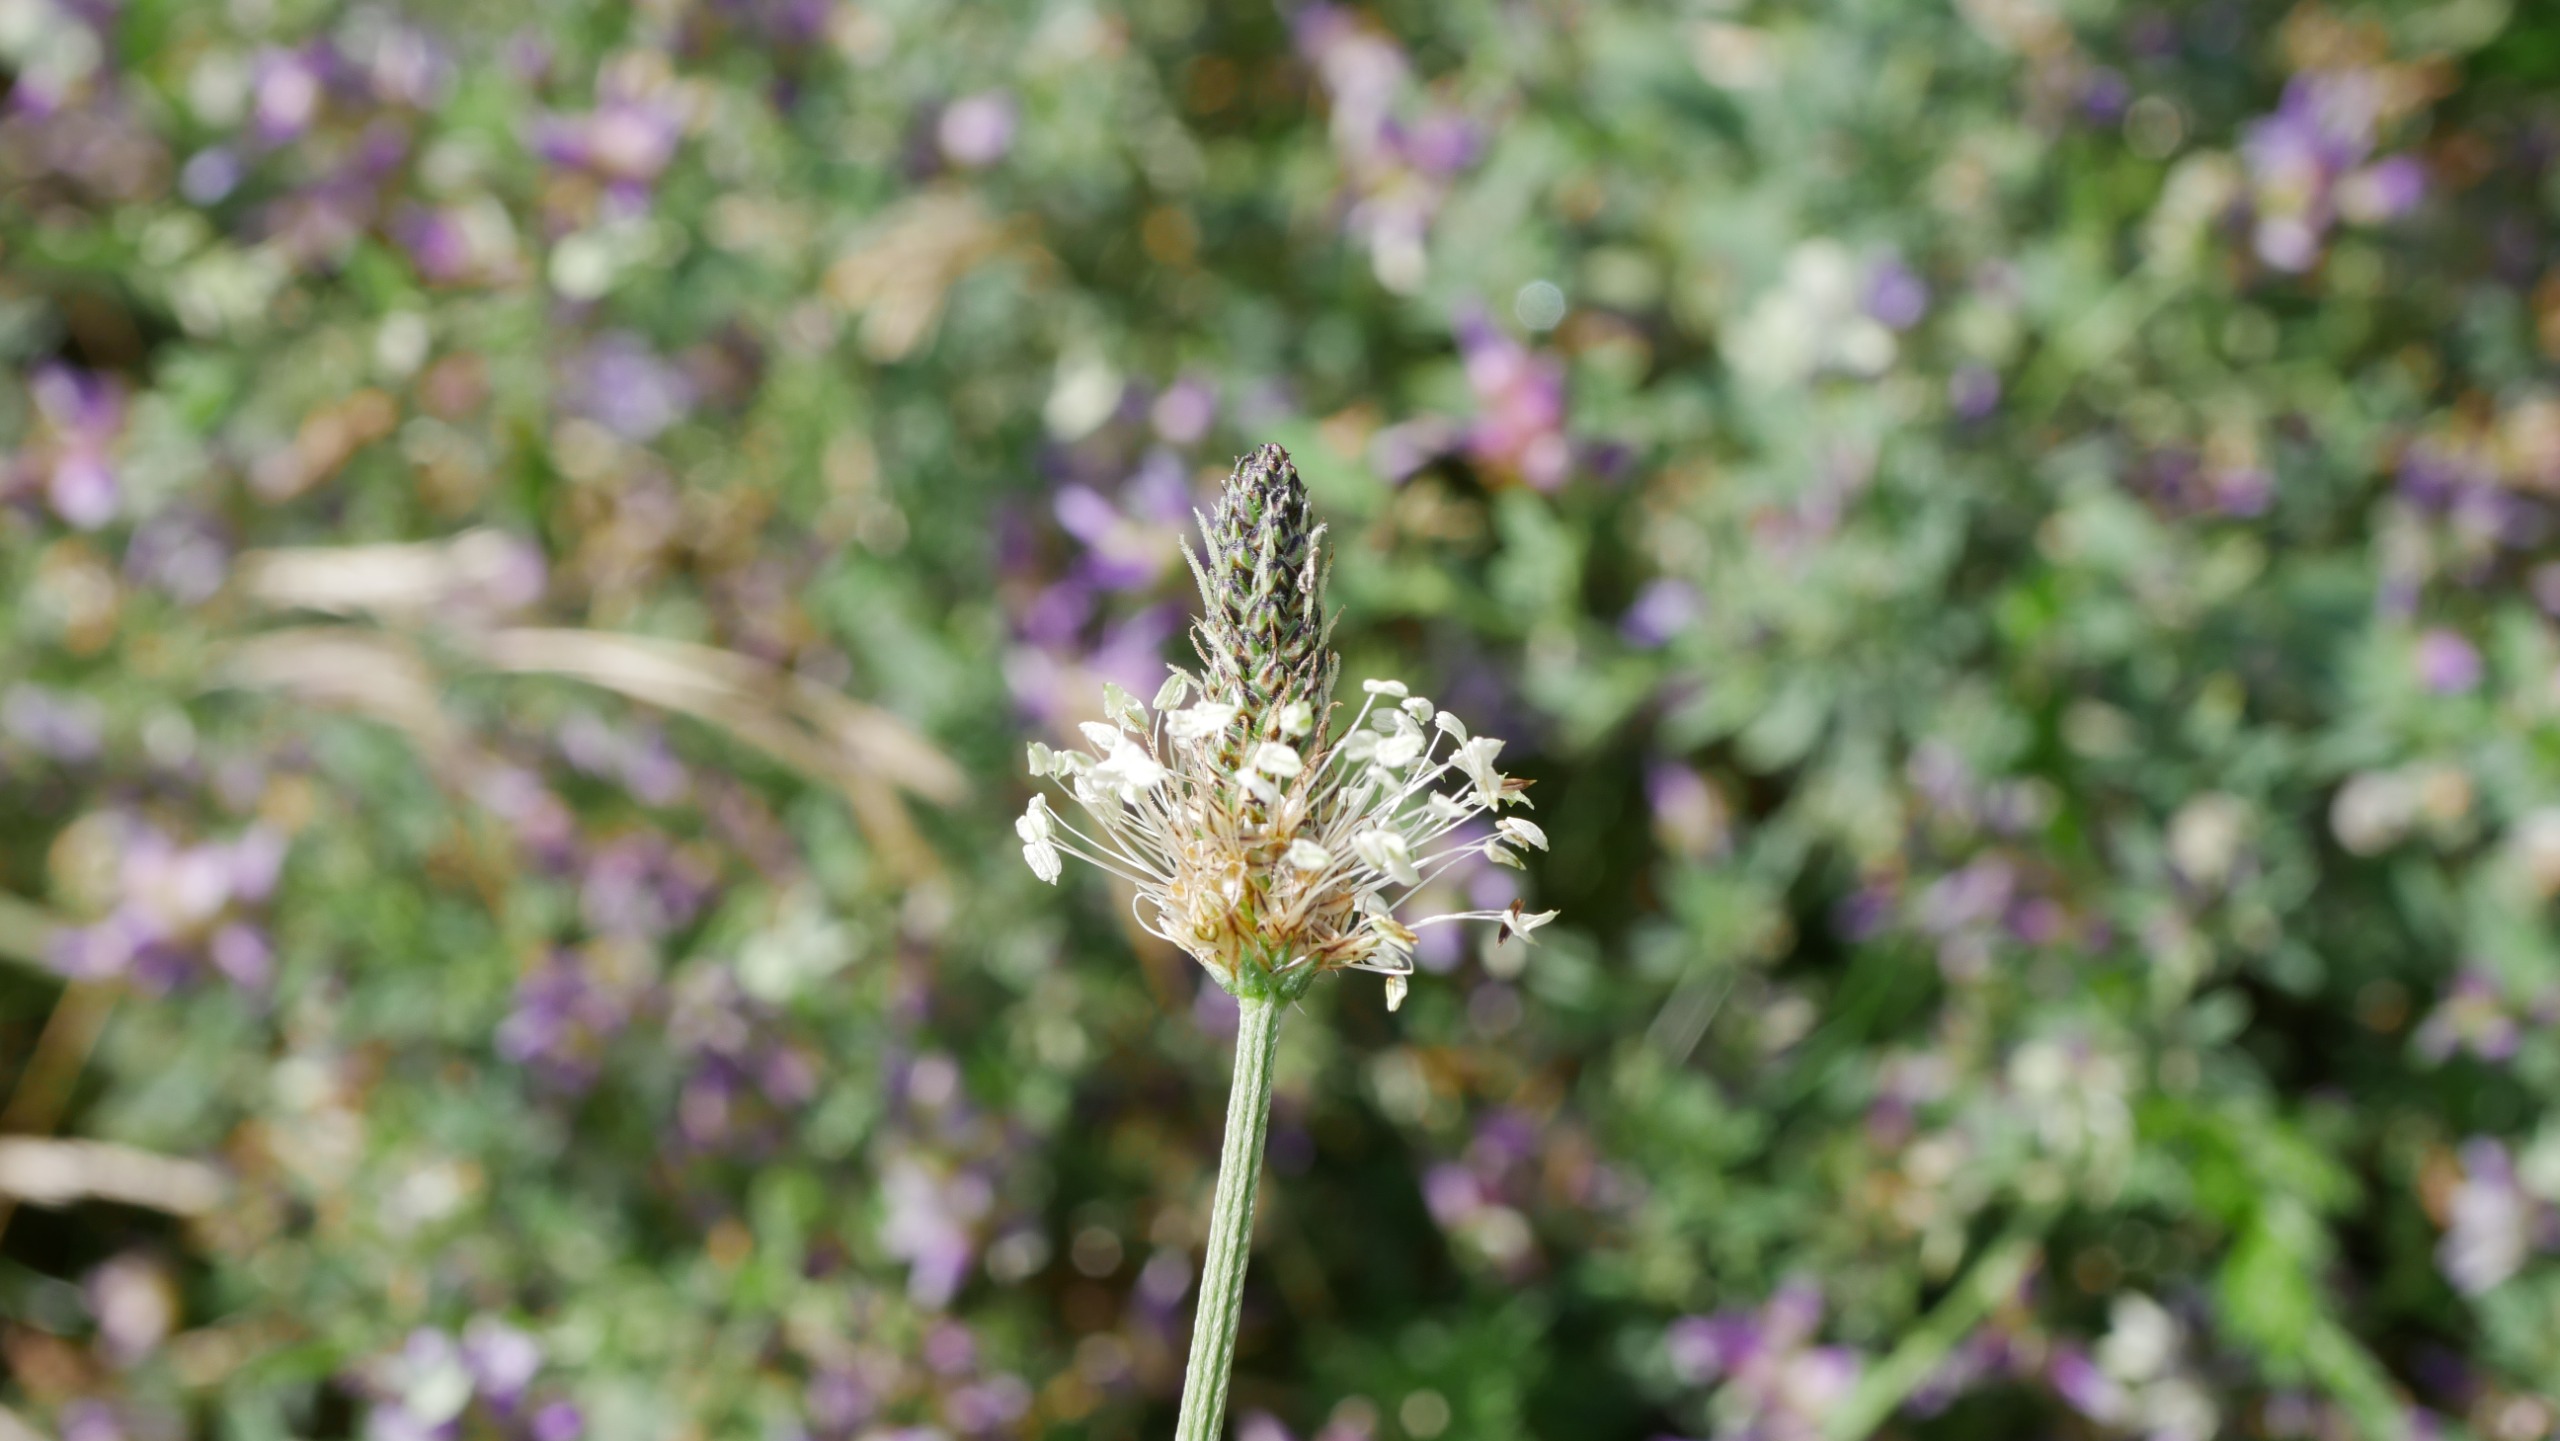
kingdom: Plantae
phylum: Tracheophyta
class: Magnoliopsida
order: Lamiales
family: Plantaginaceae
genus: Plantago
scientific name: Plantago lanceolata
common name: Lancet-vejbred
